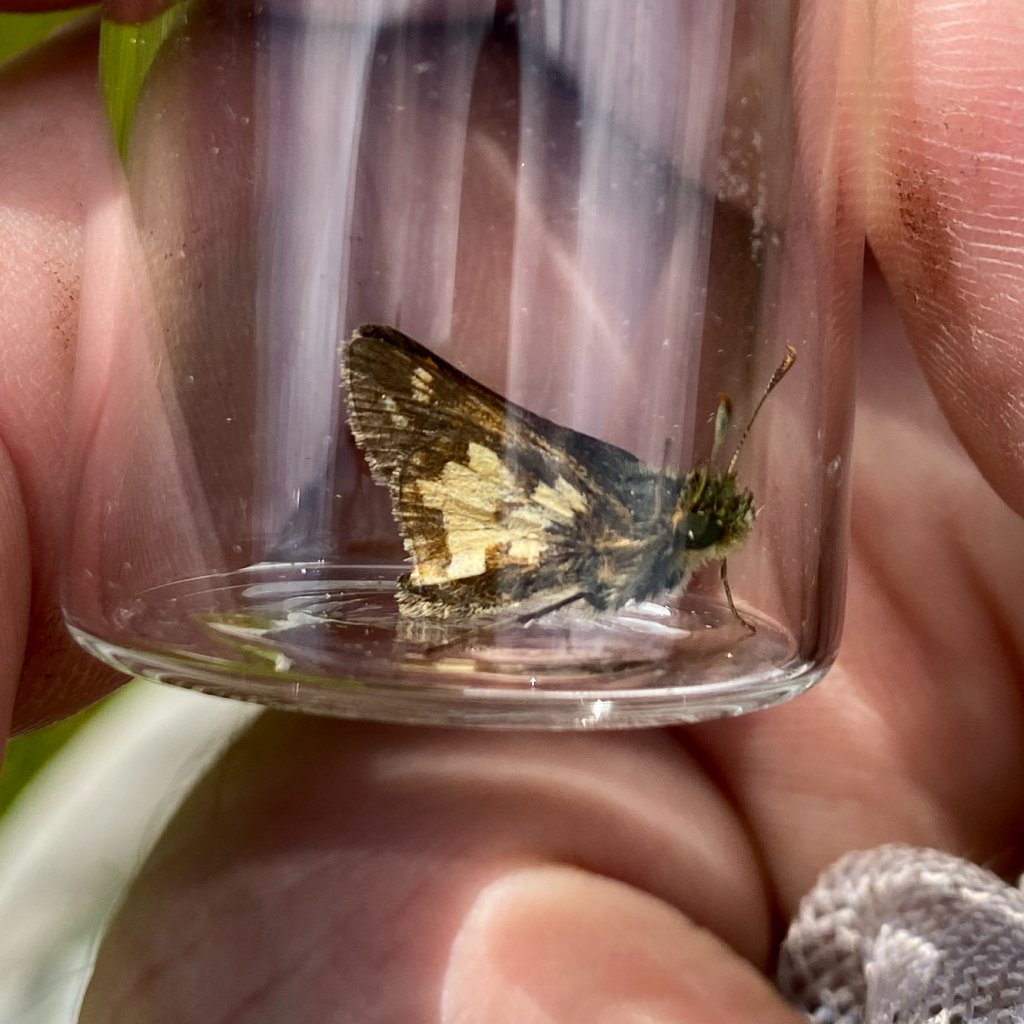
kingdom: Animalia
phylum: Arthropoda
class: Insecta
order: Lepidoptera
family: Hesperiidae
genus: Polites
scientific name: Polites coras
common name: Peck's Skipper
